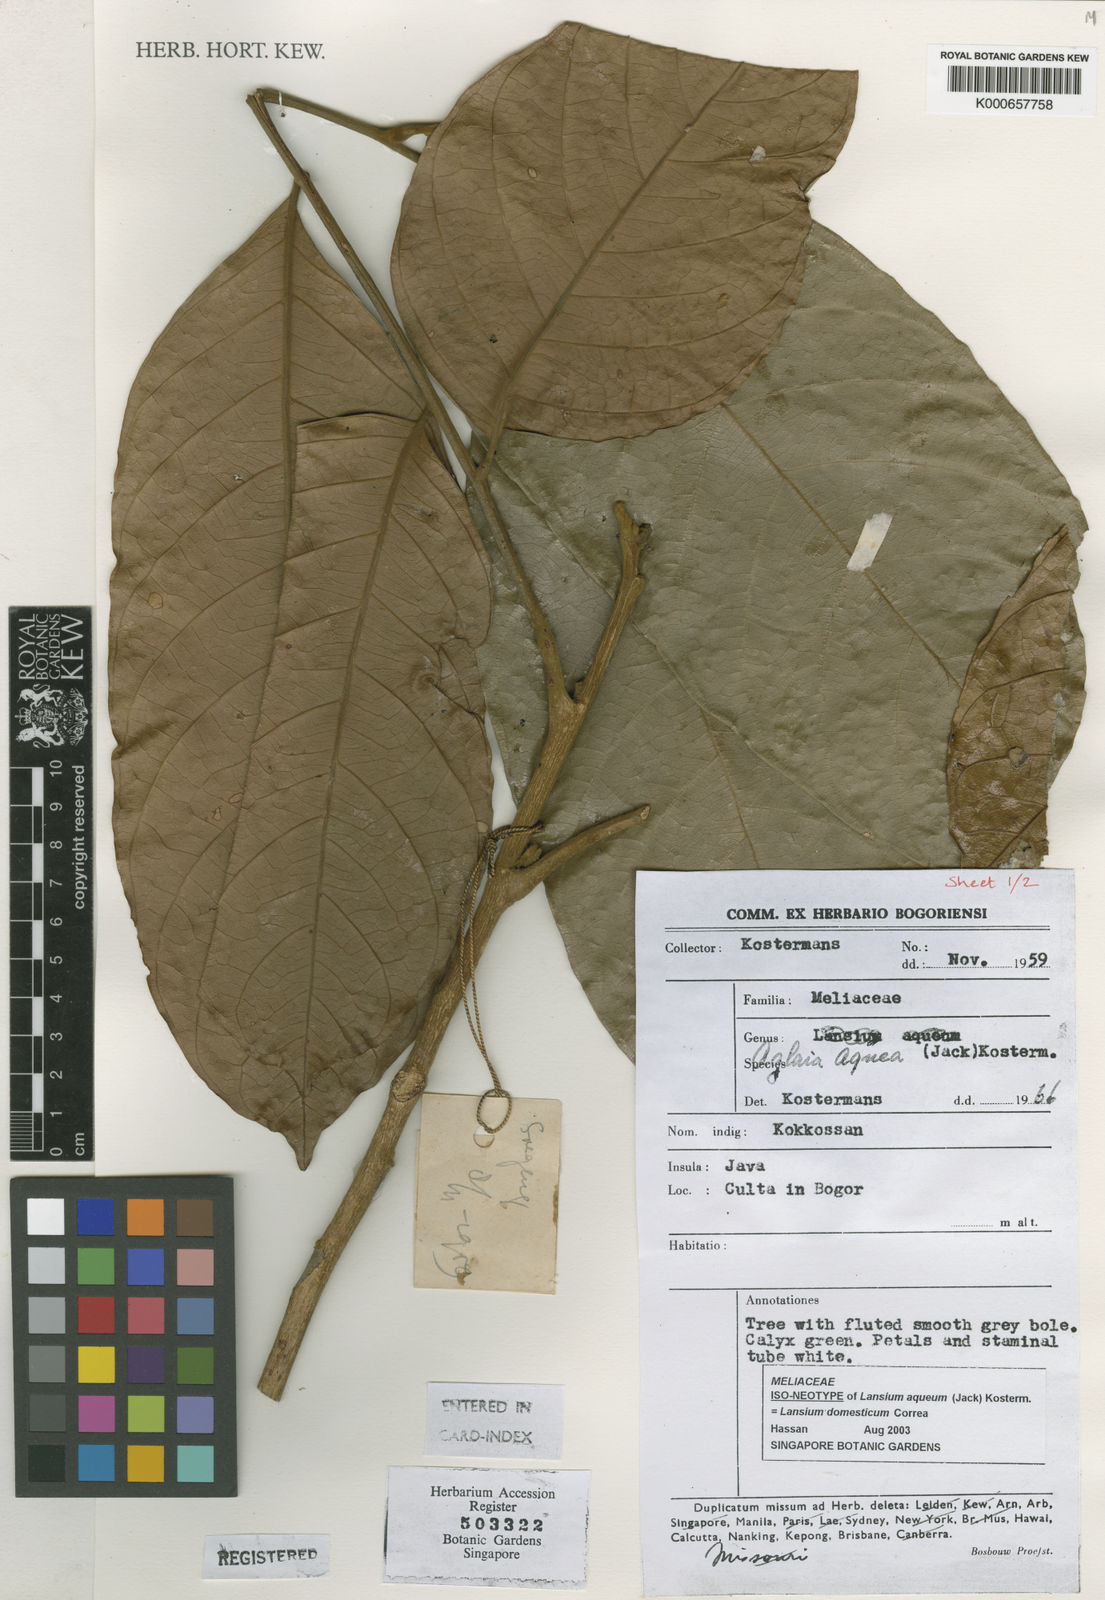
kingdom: Plantae
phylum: Tracheophyta
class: Magnoliopsida
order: Sapindales
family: Meliaceae
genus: Lansium
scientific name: Lansium
